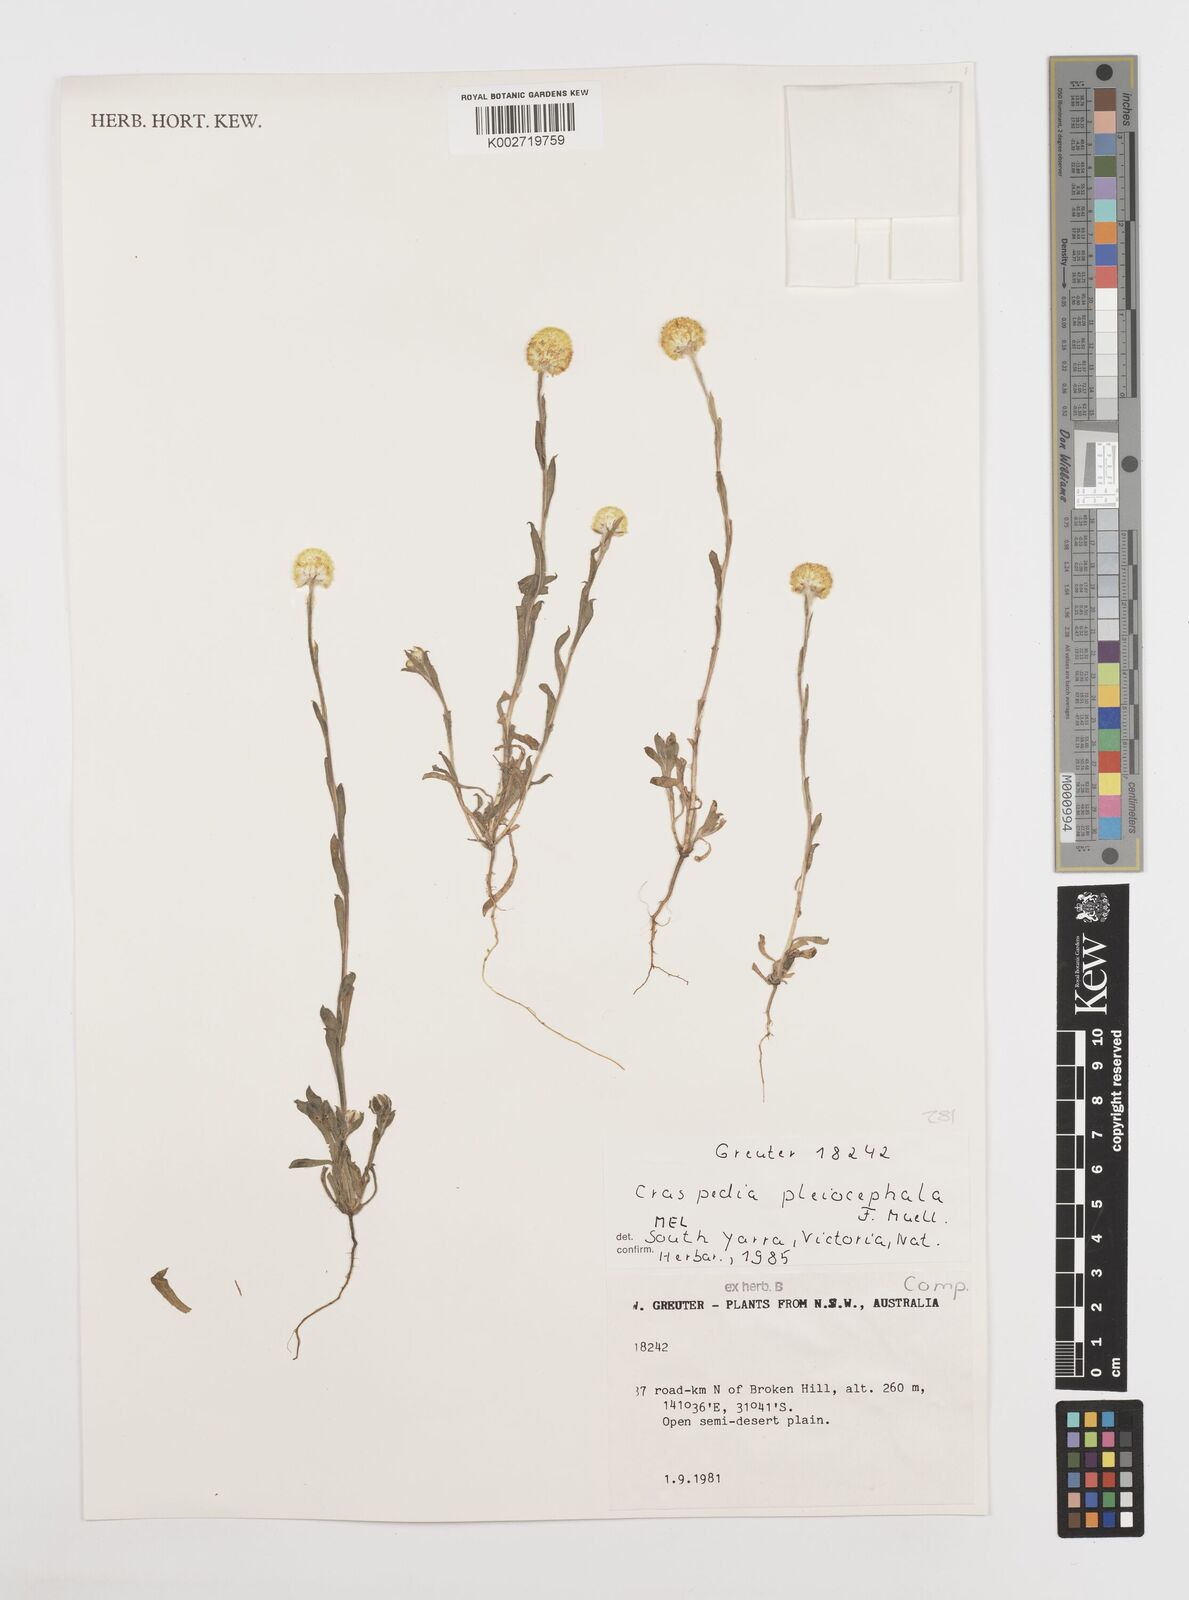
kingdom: Plantae
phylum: Tracheophyta
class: Magnoliopsida
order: Asterales
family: Asteraceae
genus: Pycnosorus
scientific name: Pycnosorus pleiocephalus
